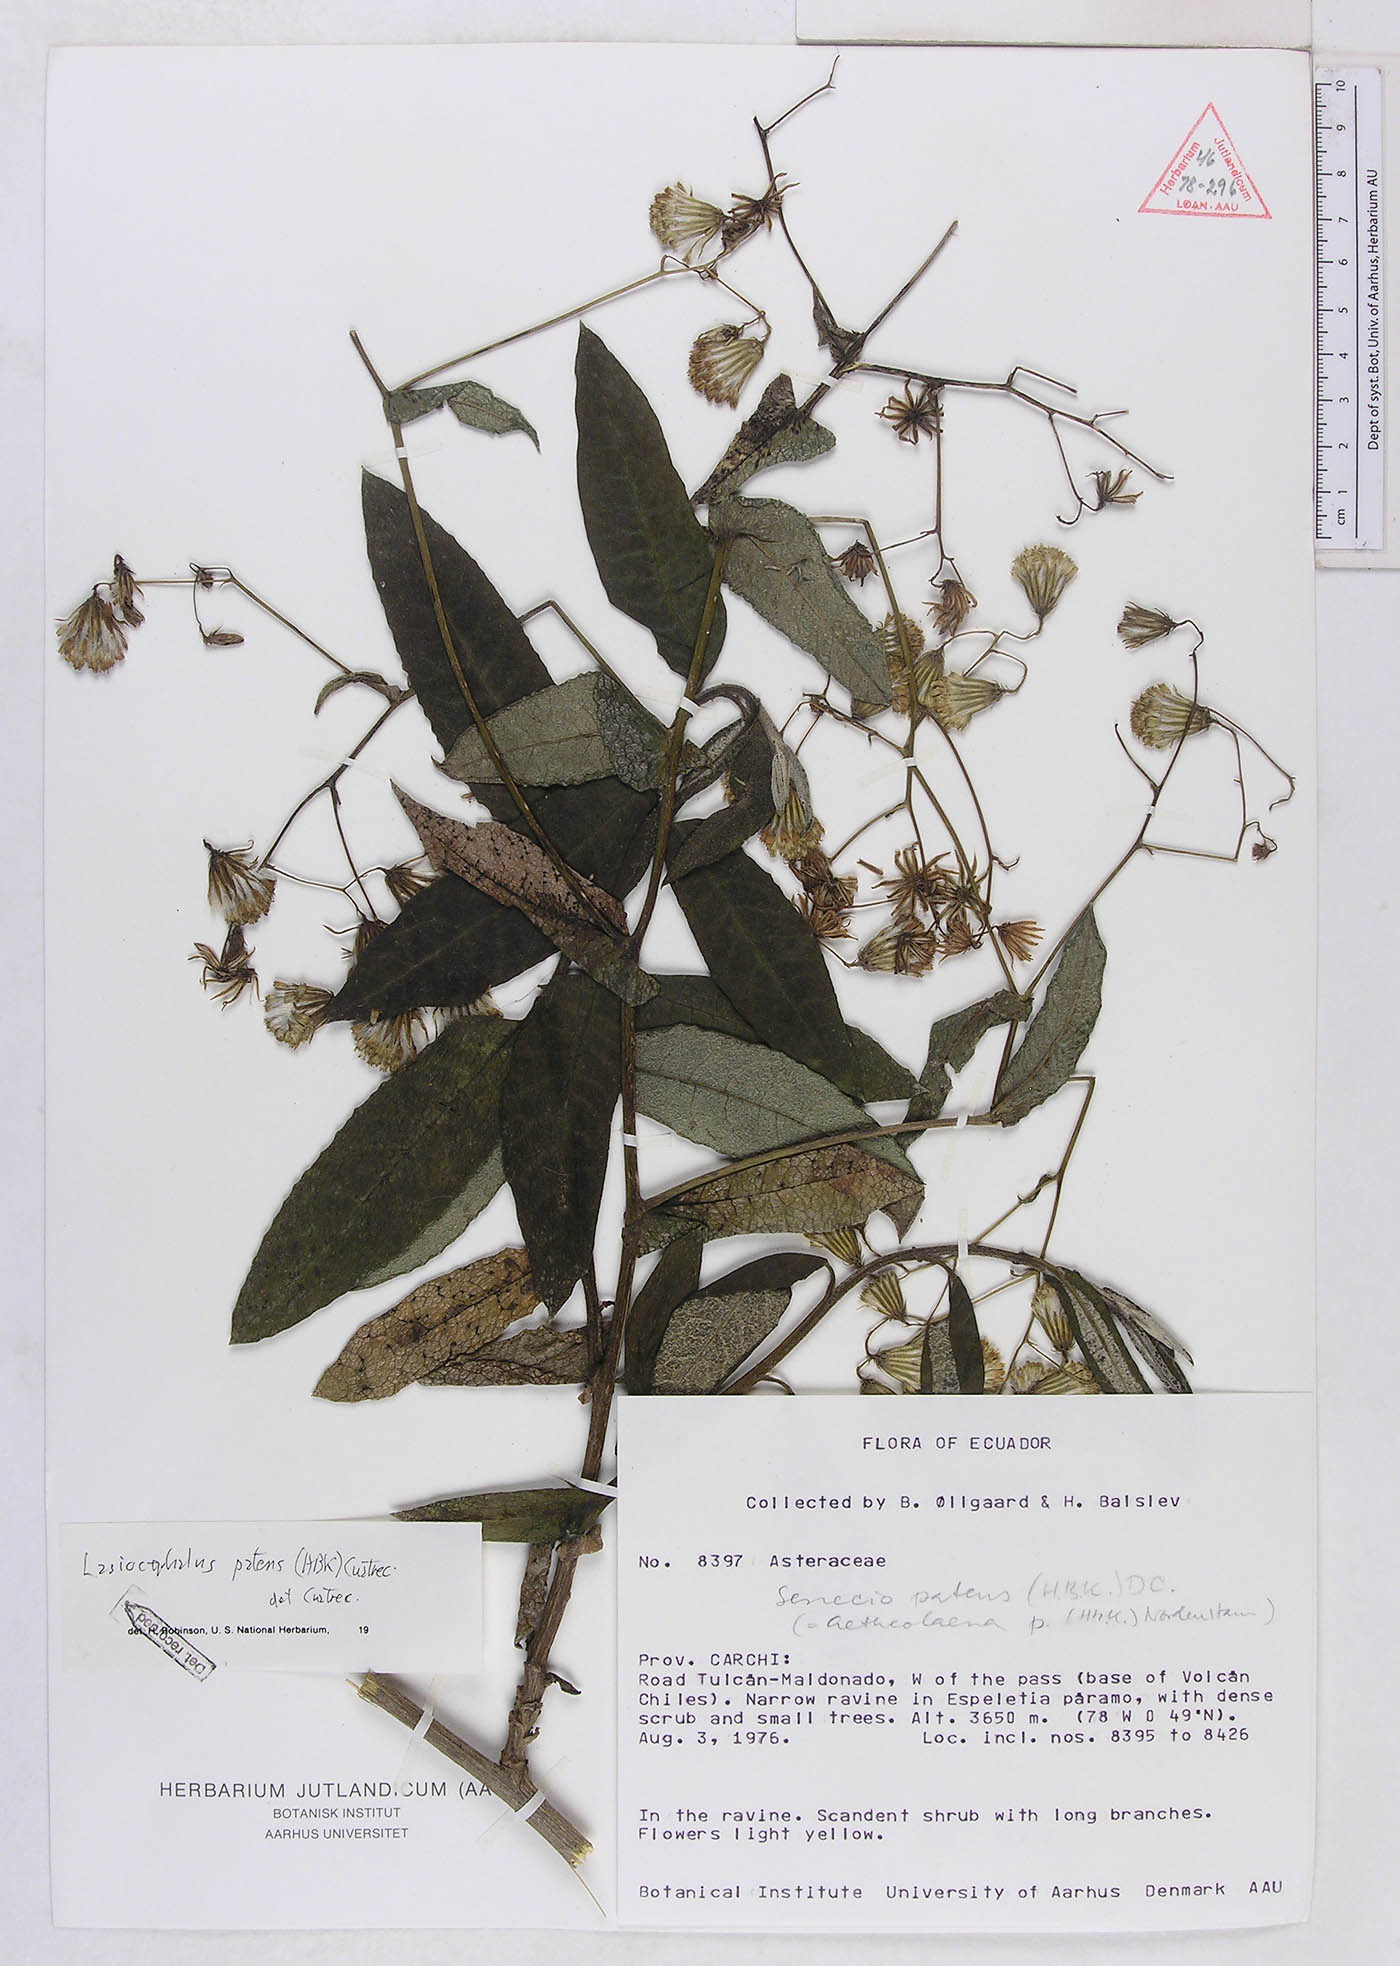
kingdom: Plantae
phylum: Tracheophyta
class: Magnoliopsida
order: Asterales
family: Asteraceae
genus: Aetheolaena
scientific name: Aetheolaena patens
